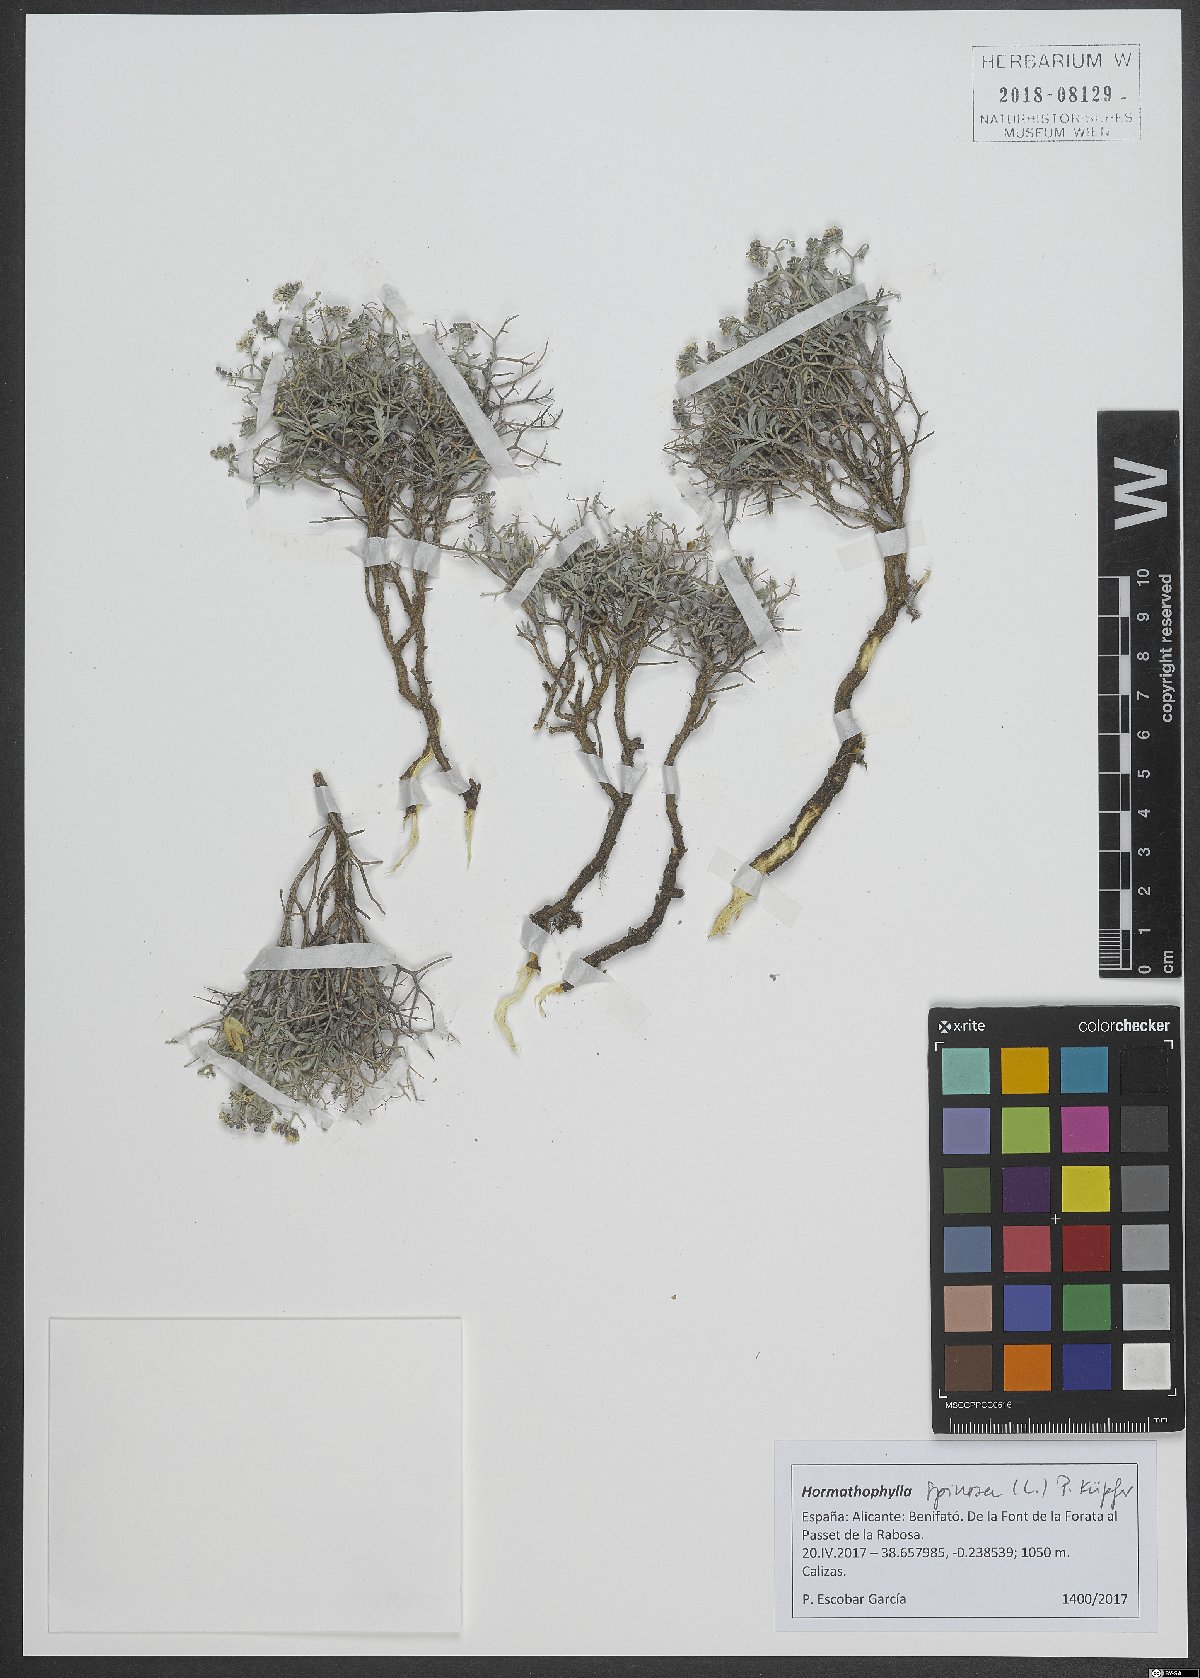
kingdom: Plantae
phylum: Tracheophyta
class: Magnoliopsida
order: Brassicales
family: Brassicaceae
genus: Hormathophylla
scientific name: Hormathophylla spinosa
